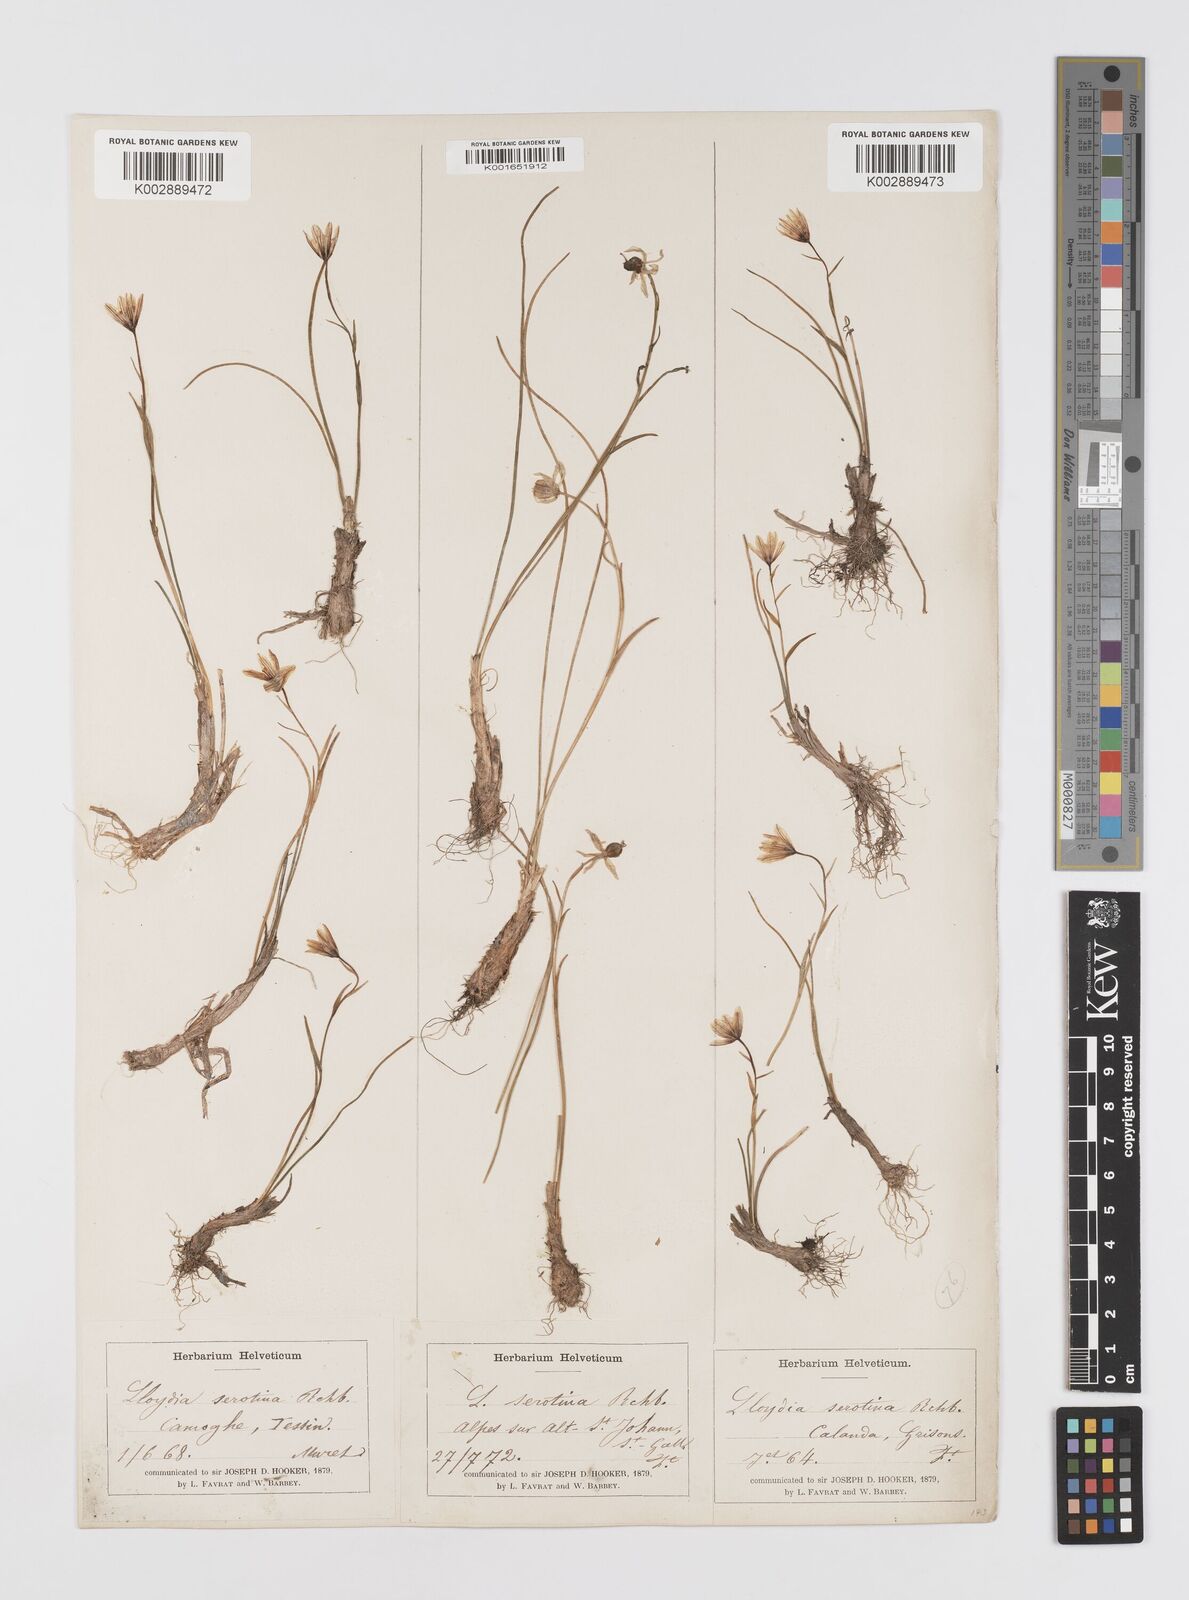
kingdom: Plantae
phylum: Tracheophyta
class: Liliopsida
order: Liliales
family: Liliaceae
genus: Gagea
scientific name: Gagea
